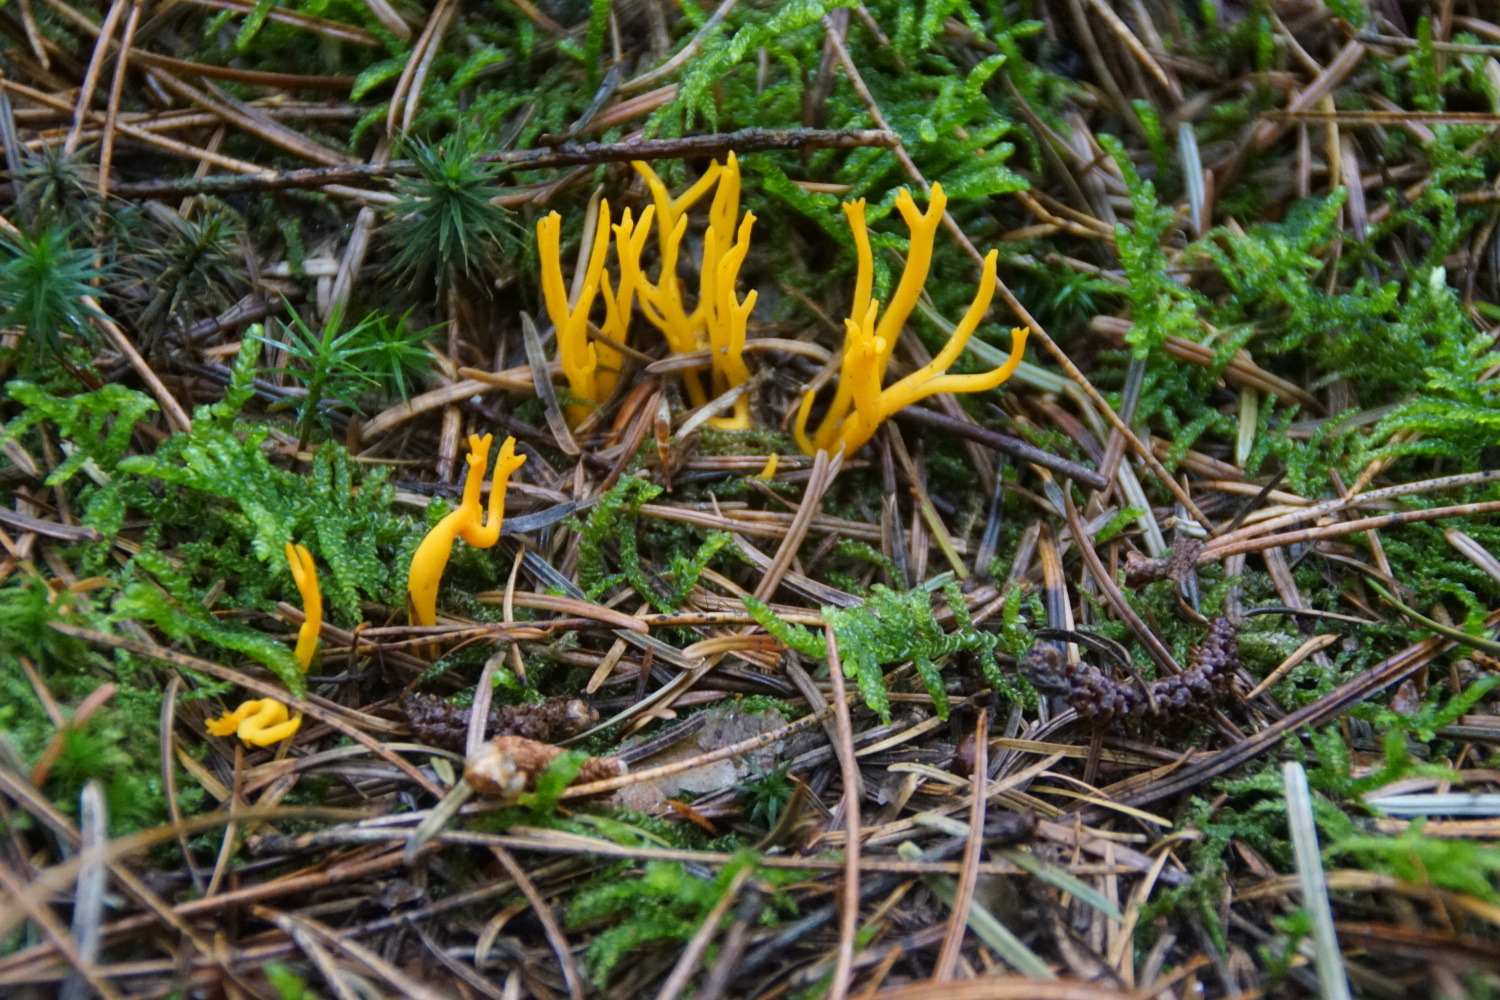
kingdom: Fungi
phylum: Basidiomycota
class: Dacrymycetes
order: Dacrymycetales
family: Dacrymycetaceae
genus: Calocera
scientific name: Calocera viscosa
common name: almindelig guldgaffel
